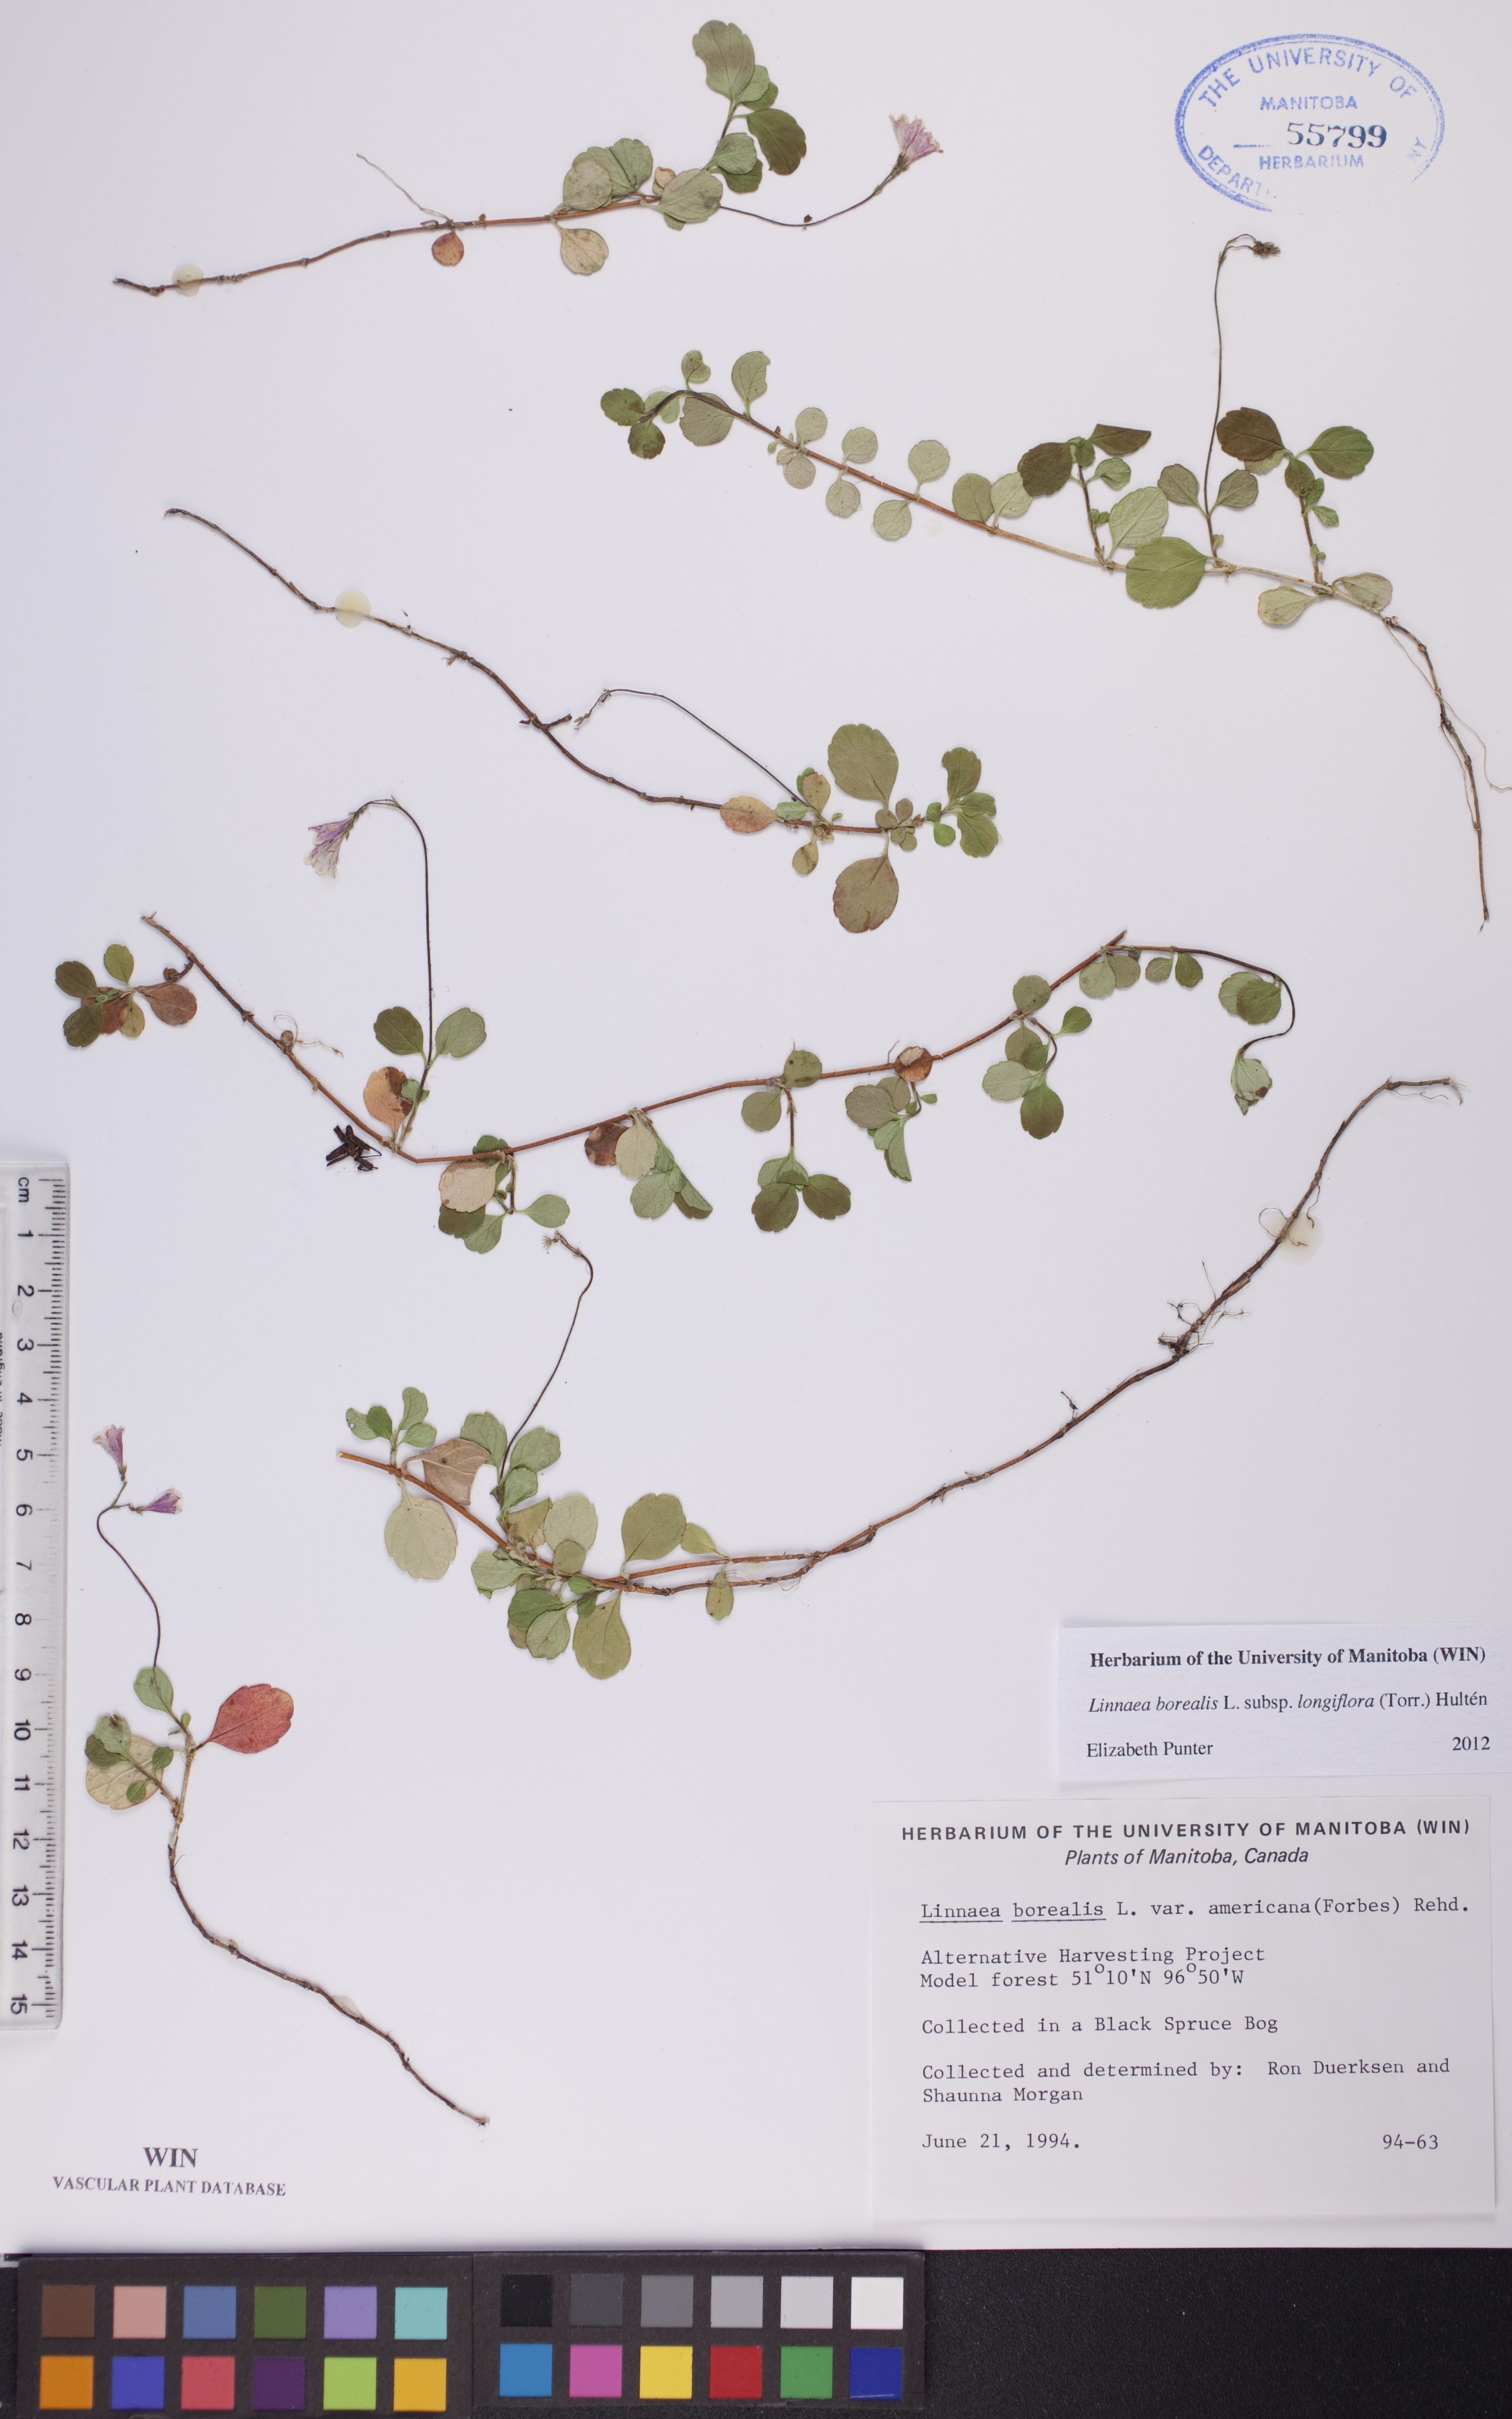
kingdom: Plantae
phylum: Tracheophyta
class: Magnoliopsida
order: Dipsacales
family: Caprifoliaceae
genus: Linnaea
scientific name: Linnaea borealis
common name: Twinflower
